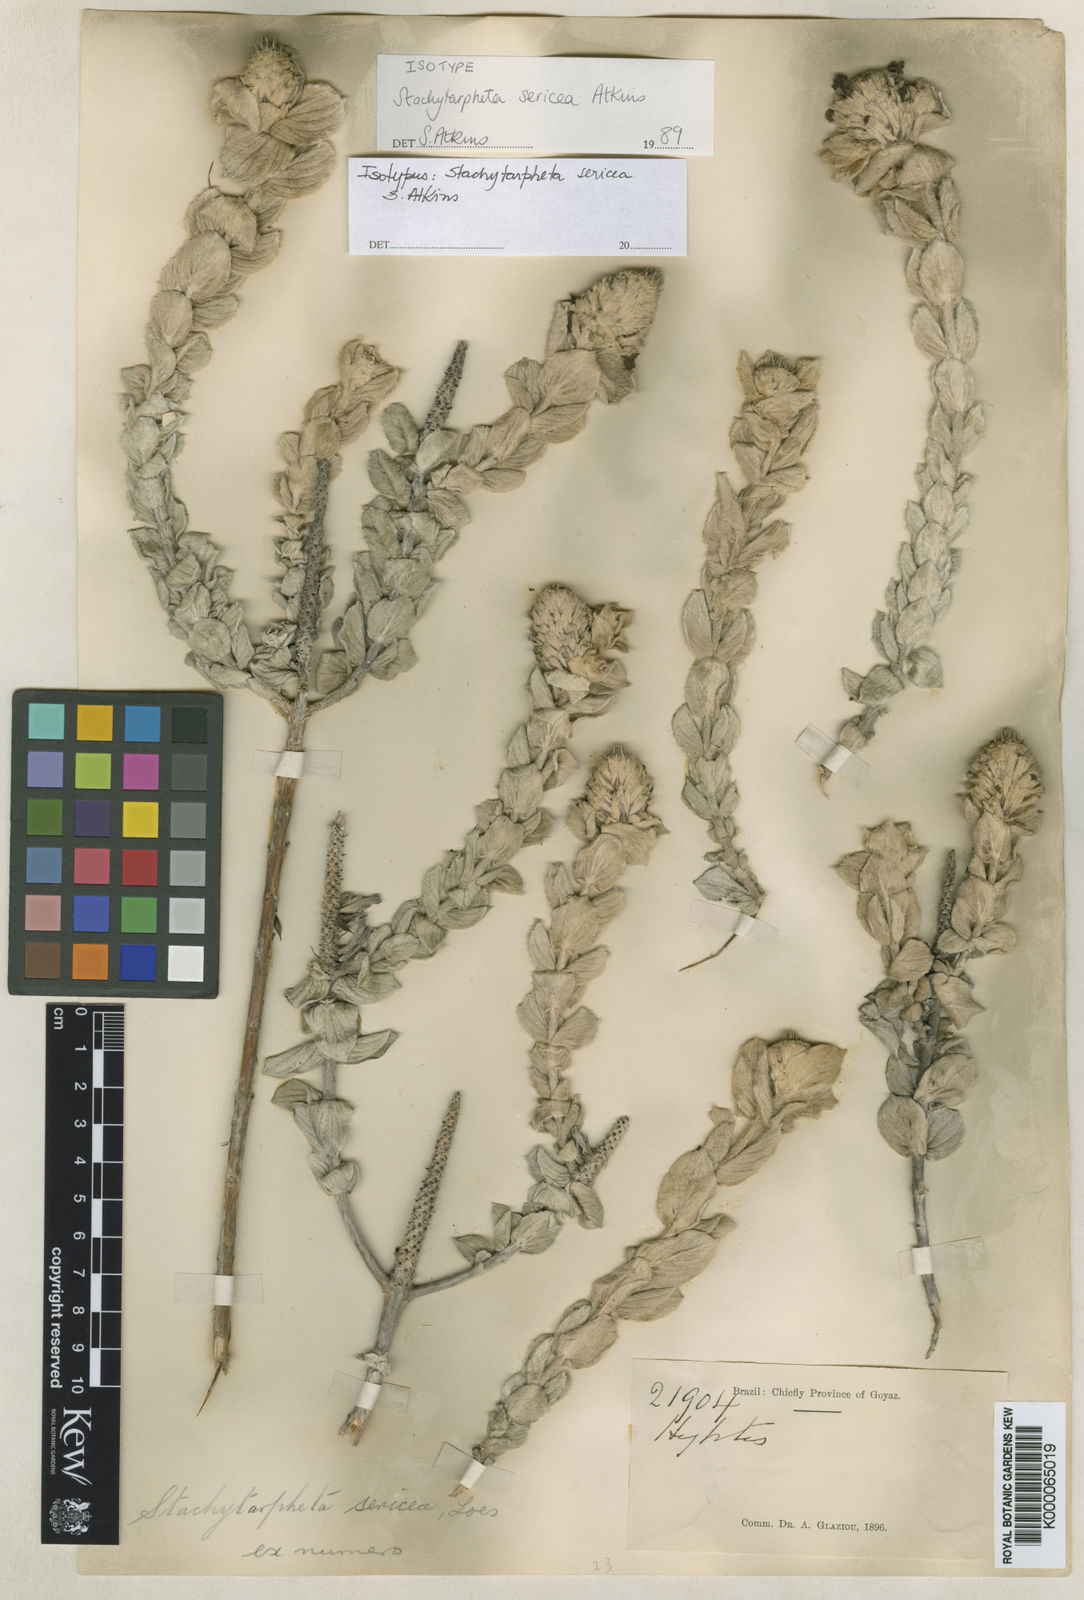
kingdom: Plantae
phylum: Tracheophyta
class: Magnoliopsida
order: Lamiales
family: Verbenaceae
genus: Stachytarpheta
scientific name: Stachytarpheta sericea
